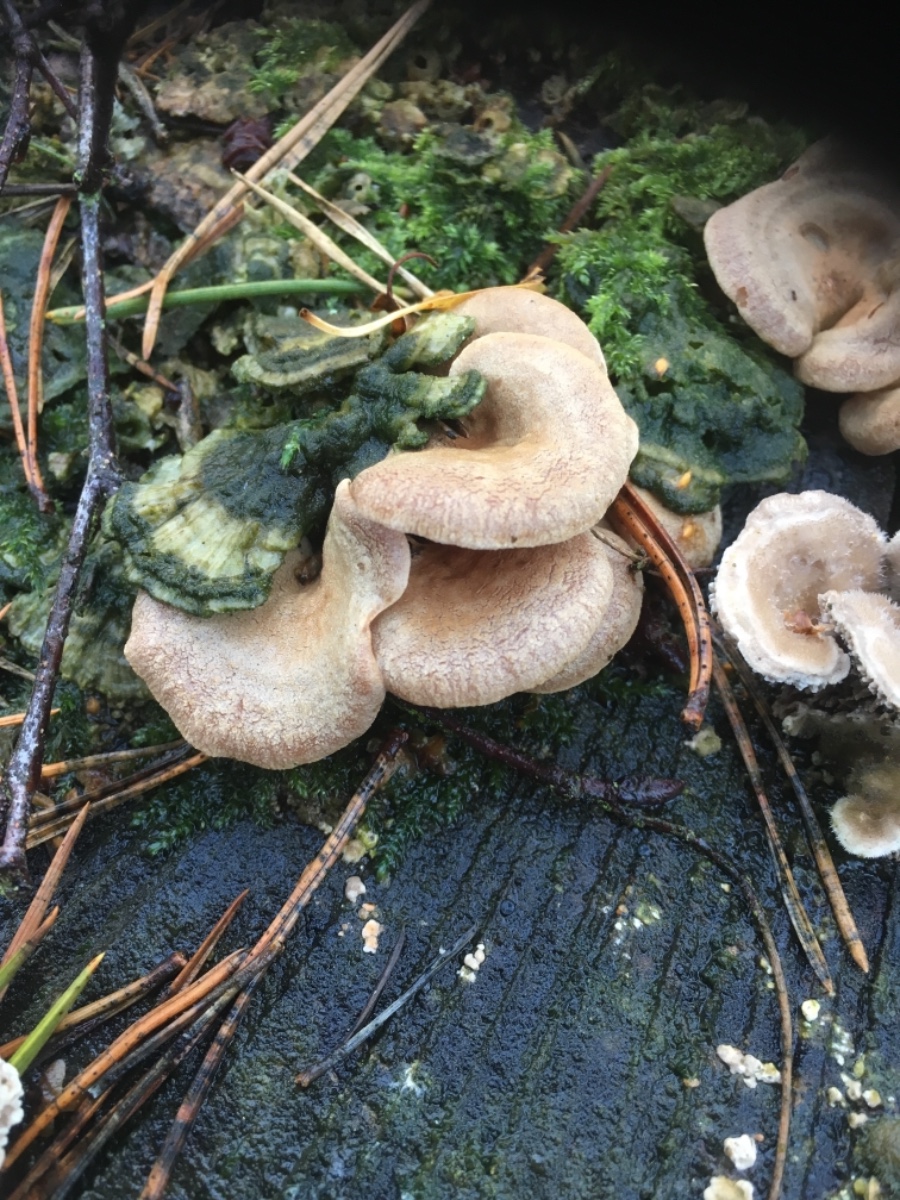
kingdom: Fungi
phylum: Basidiomycota
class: Agaricomycetes
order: Agaricales
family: Mycenaceae
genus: Panellus
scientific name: Panellus stipticus
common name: kliddet epaulethat
